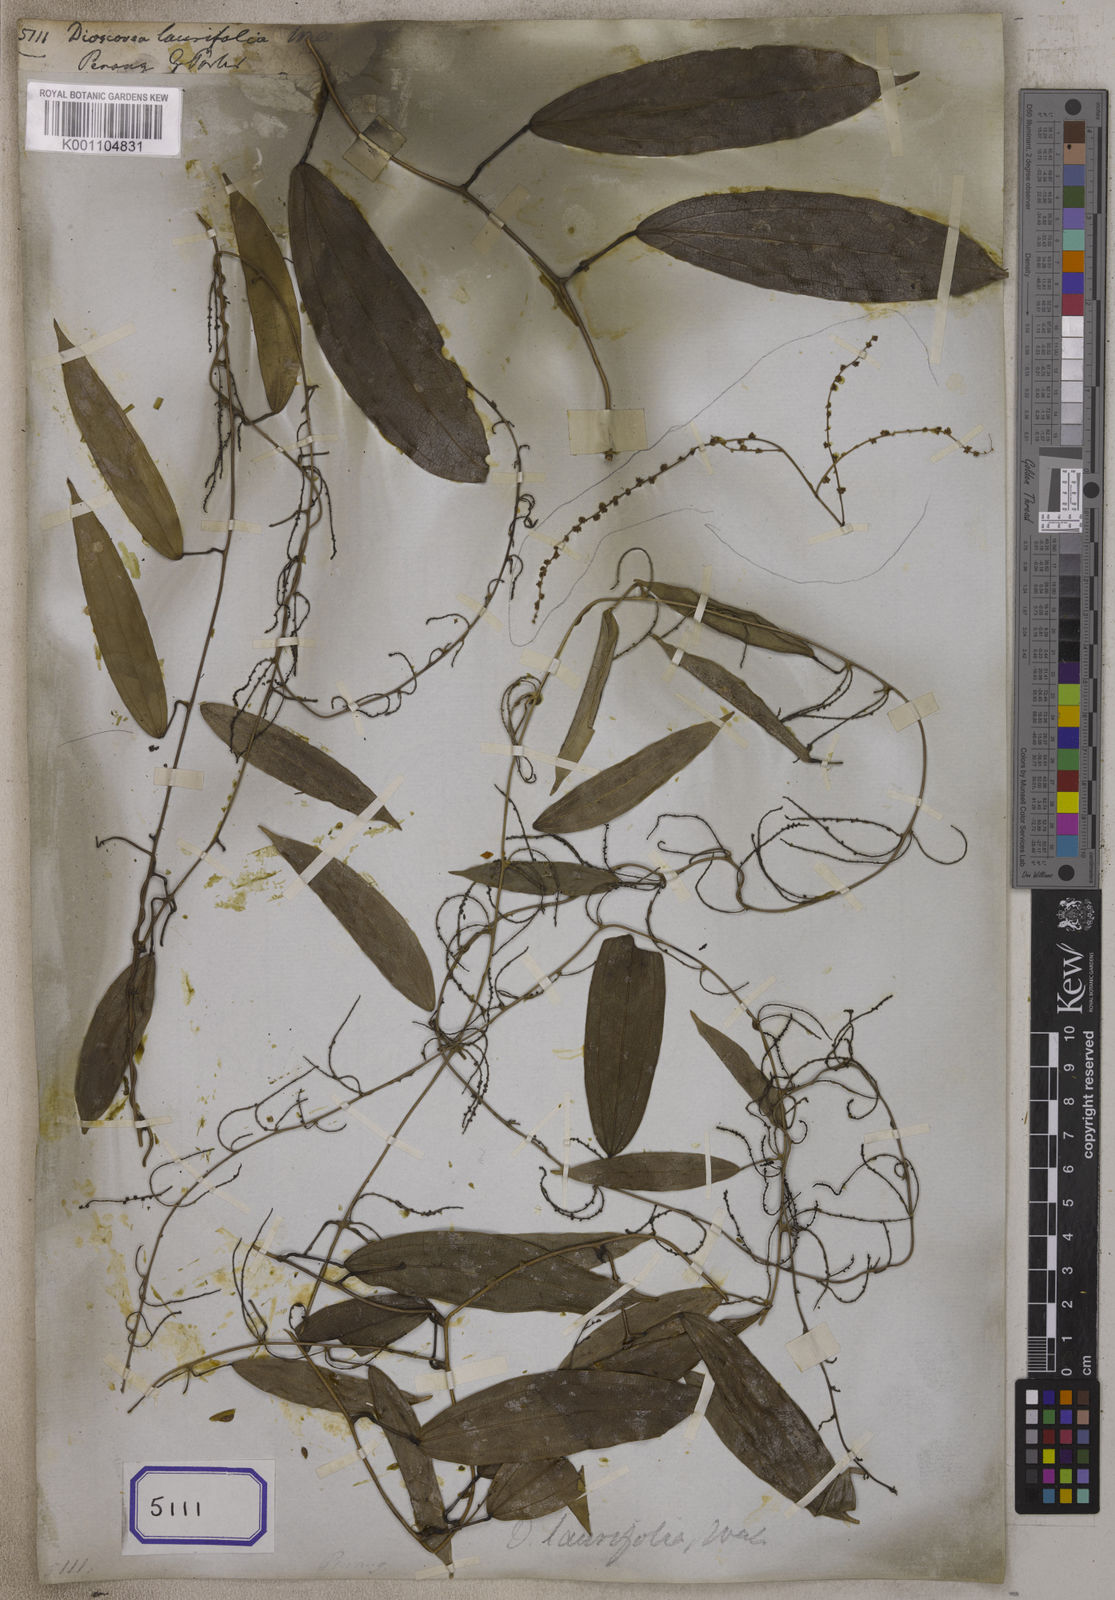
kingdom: Plantae
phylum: Tracheophyta
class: Liliopsida
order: Dioscoreales
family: Dioscoreaceae
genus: Dioscorea
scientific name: Dioscorea
